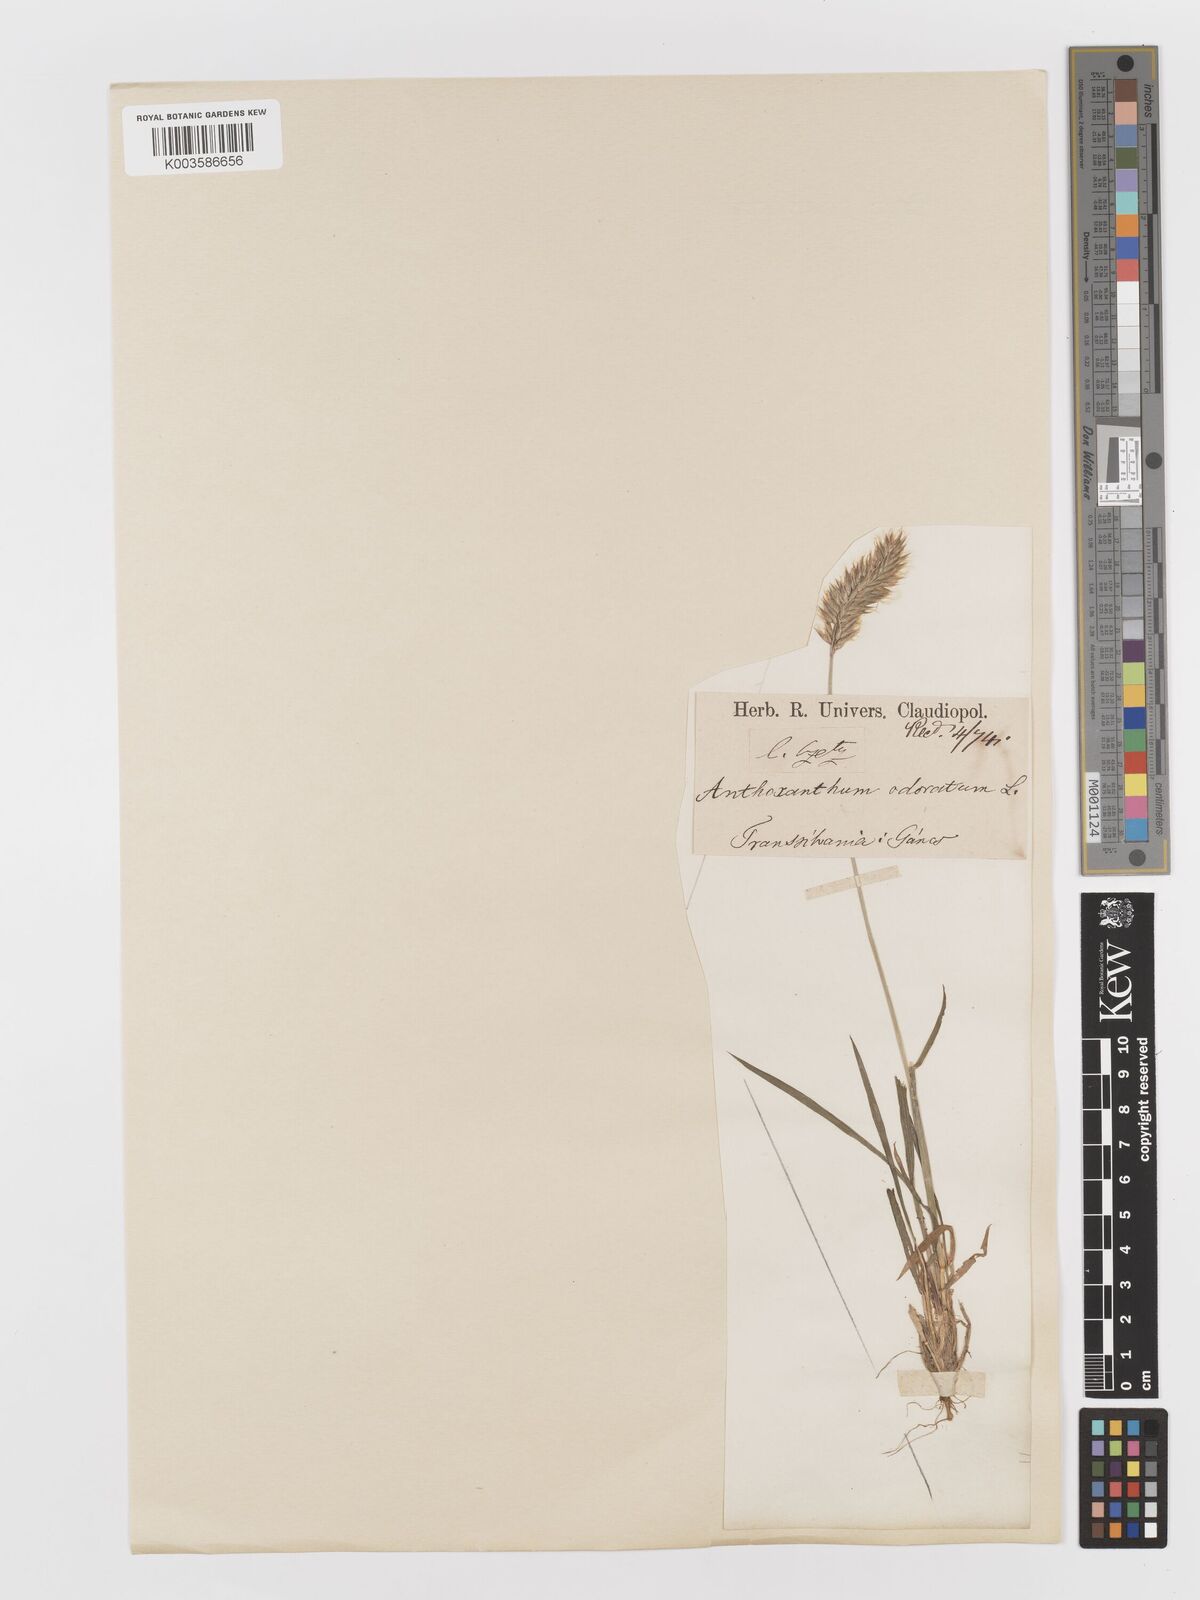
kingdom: Plantae
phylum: Tracheophyta
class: Liliopsida
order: Poales
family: Poaceae
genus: Anthoxanthum
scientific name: Anthoxanthum odoratum
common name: Sweet vernalgrass
